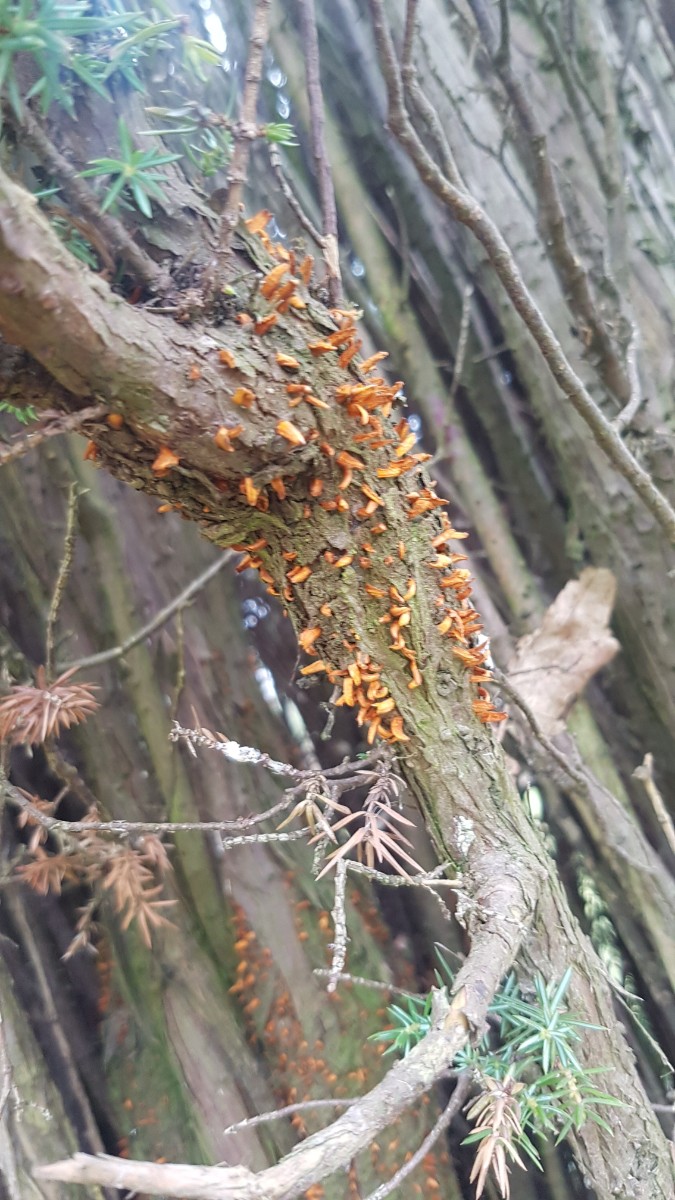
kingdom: Fungi
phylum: Basidiomycota
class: Pucciniomycetes
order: Pucciniales
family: Gymnosporangiaceae
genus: Gymnosporangium
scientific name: Gymnosporangium clavariiforme
